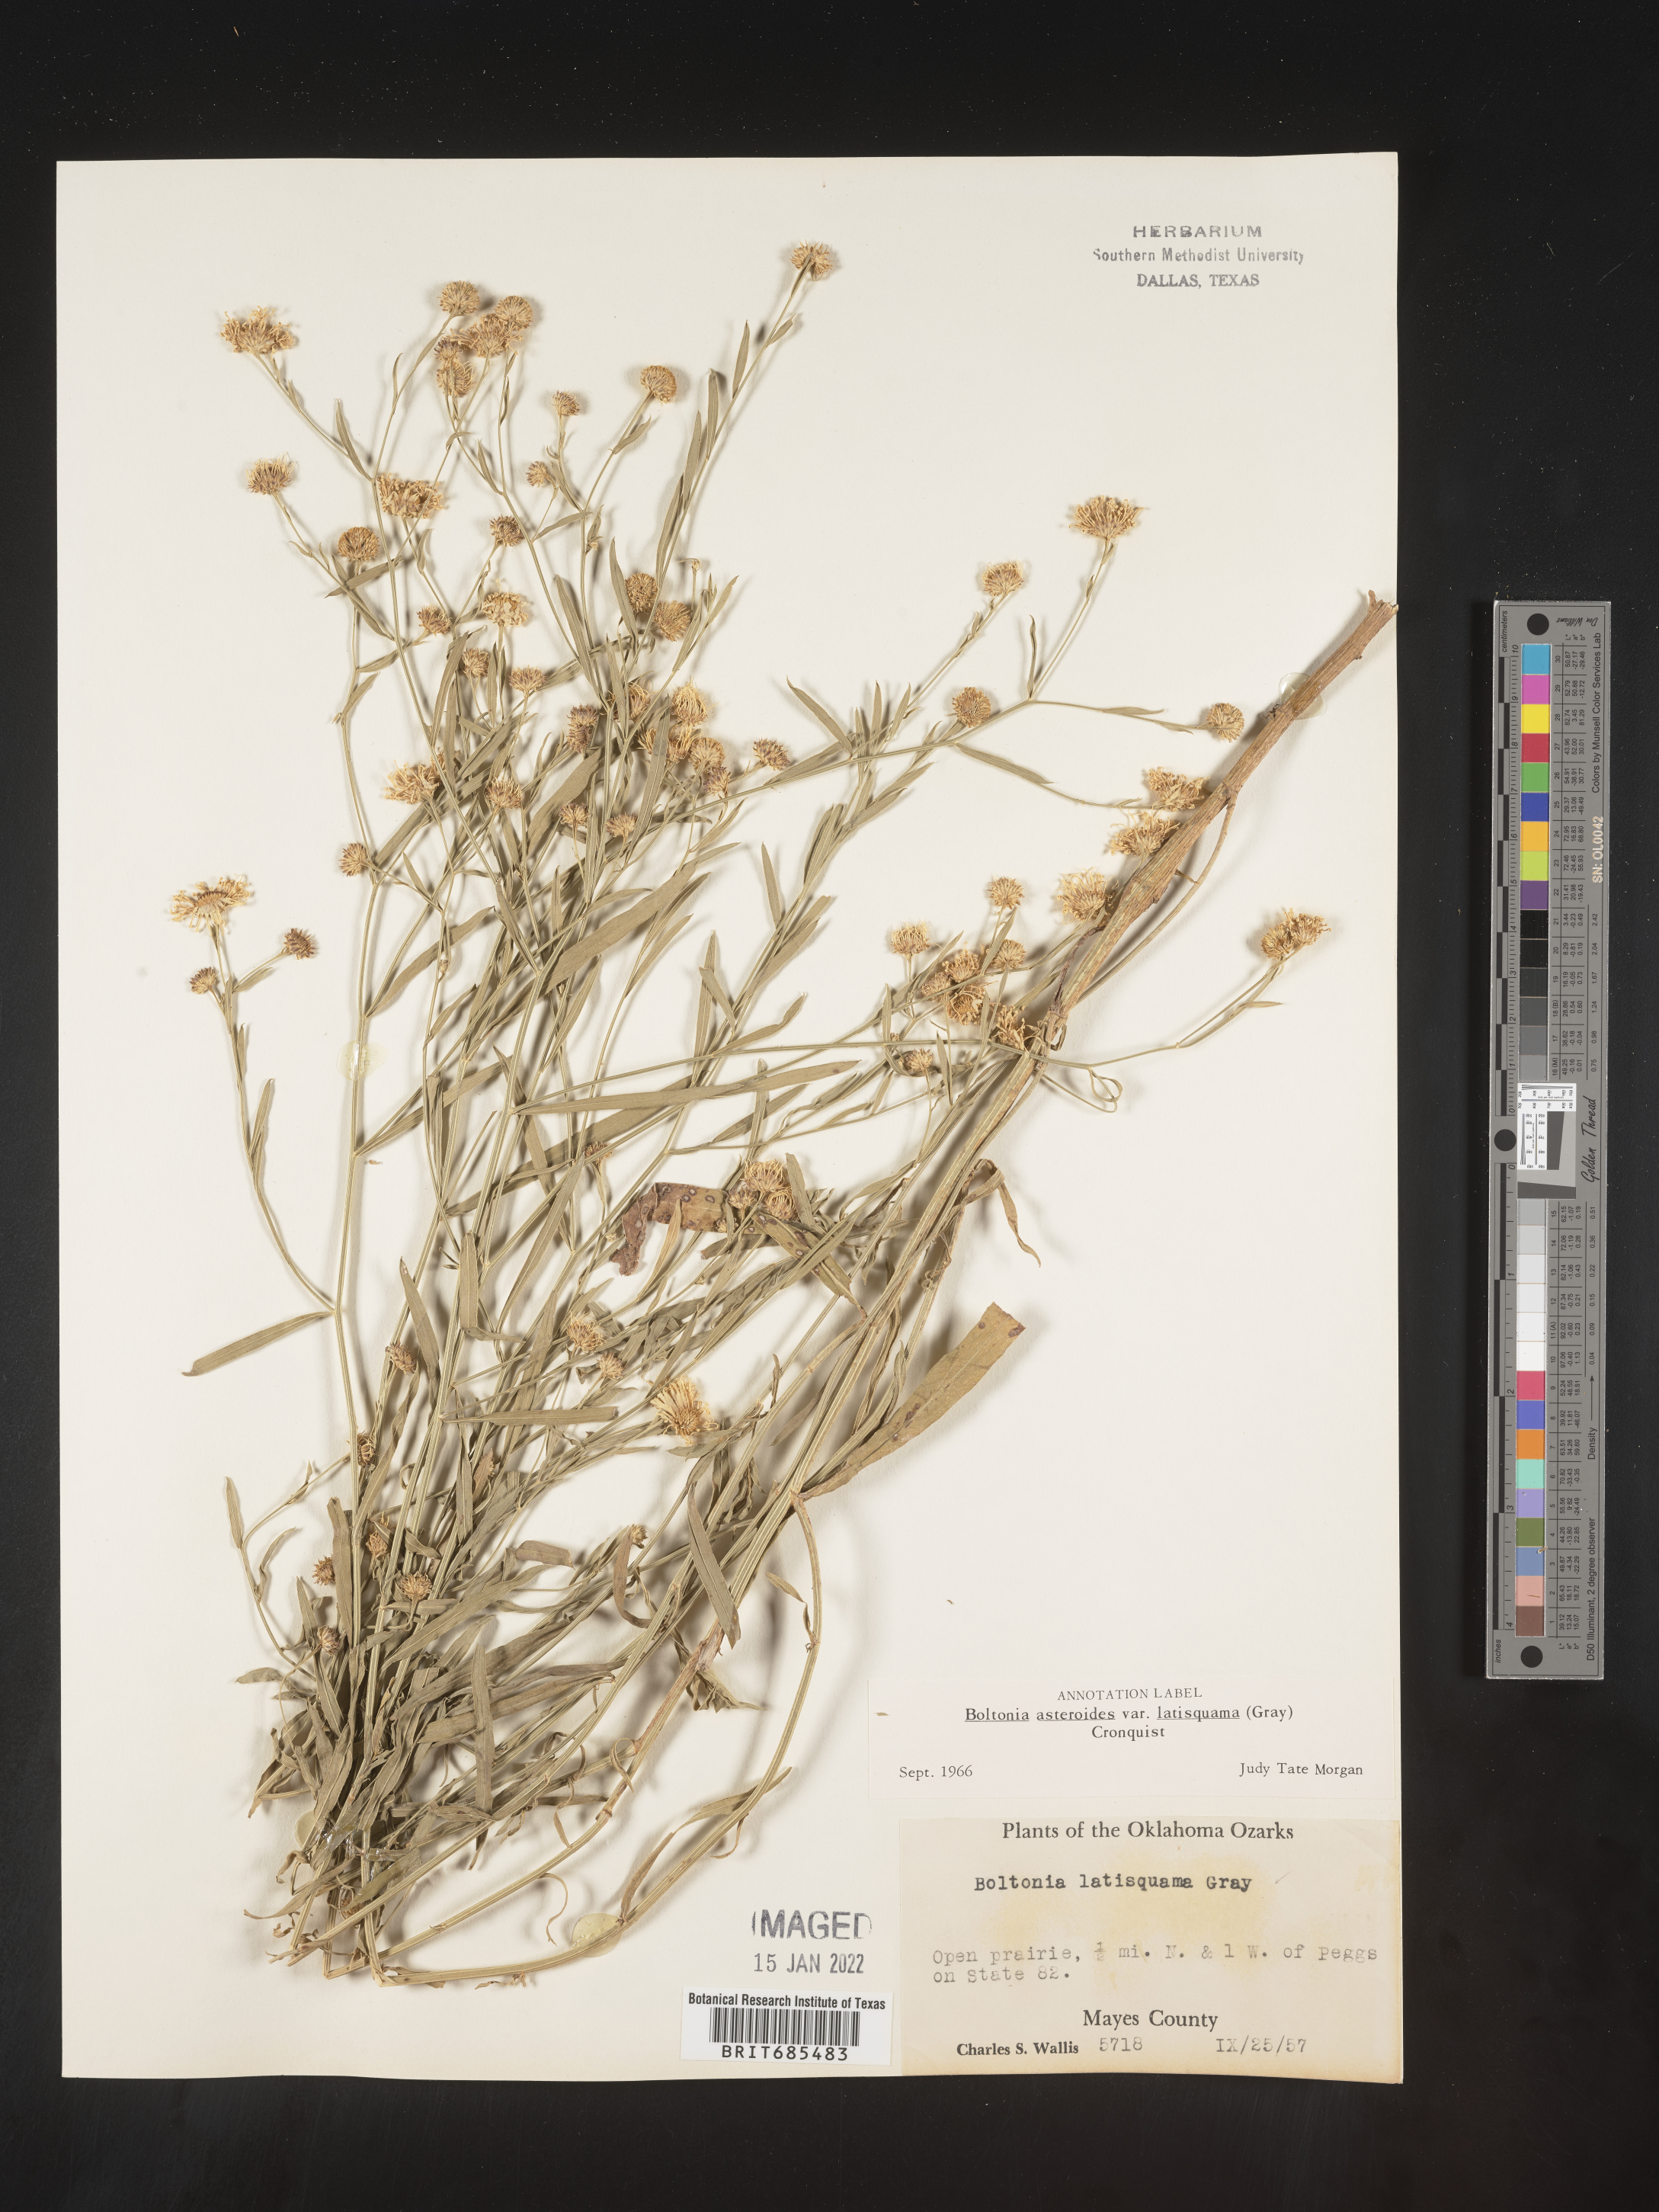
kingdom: Plantae
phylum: Tracheophyta
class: Magnoliopsida
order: Asterales
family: Asteraceae
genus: Boltonia
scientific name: Boltonia asteroides
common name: False chamomile
